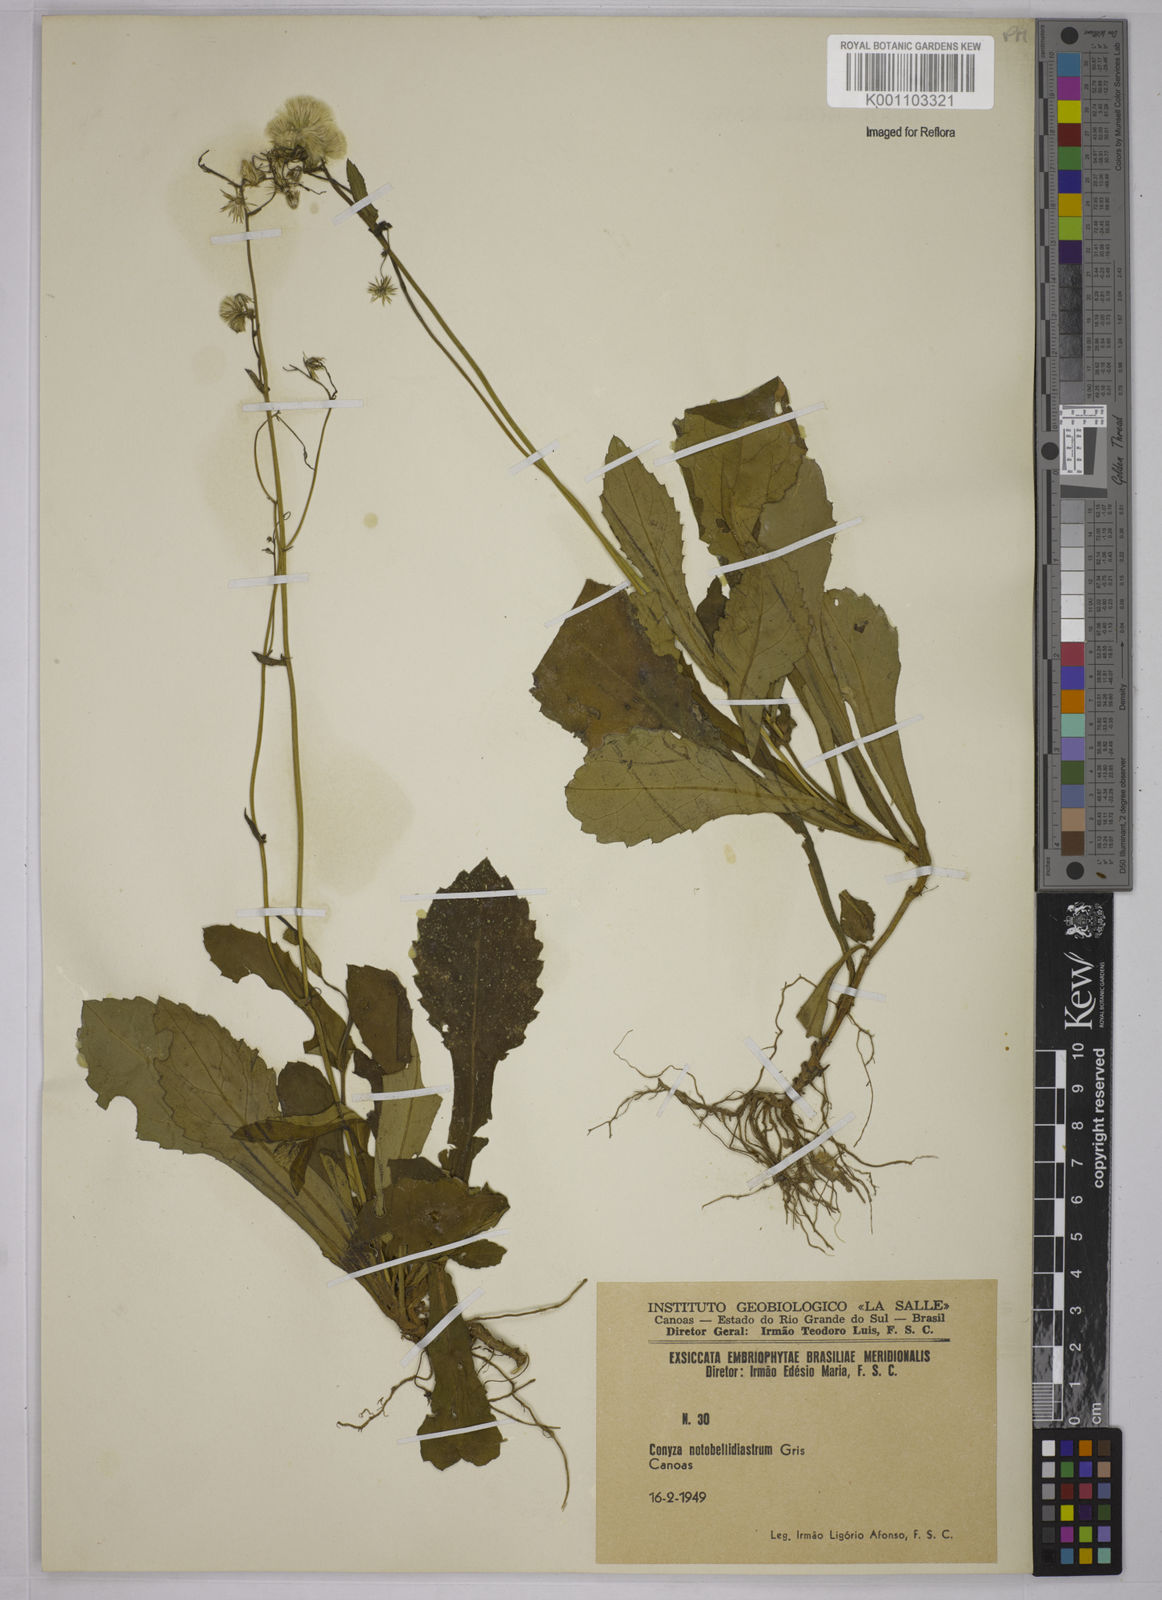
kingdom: Plantae
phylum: Tracheophyta
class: Magnoliopsida
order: Asterales
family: Asteraceae
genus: Exostigma
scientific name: Exostigma notobellidiastrum
